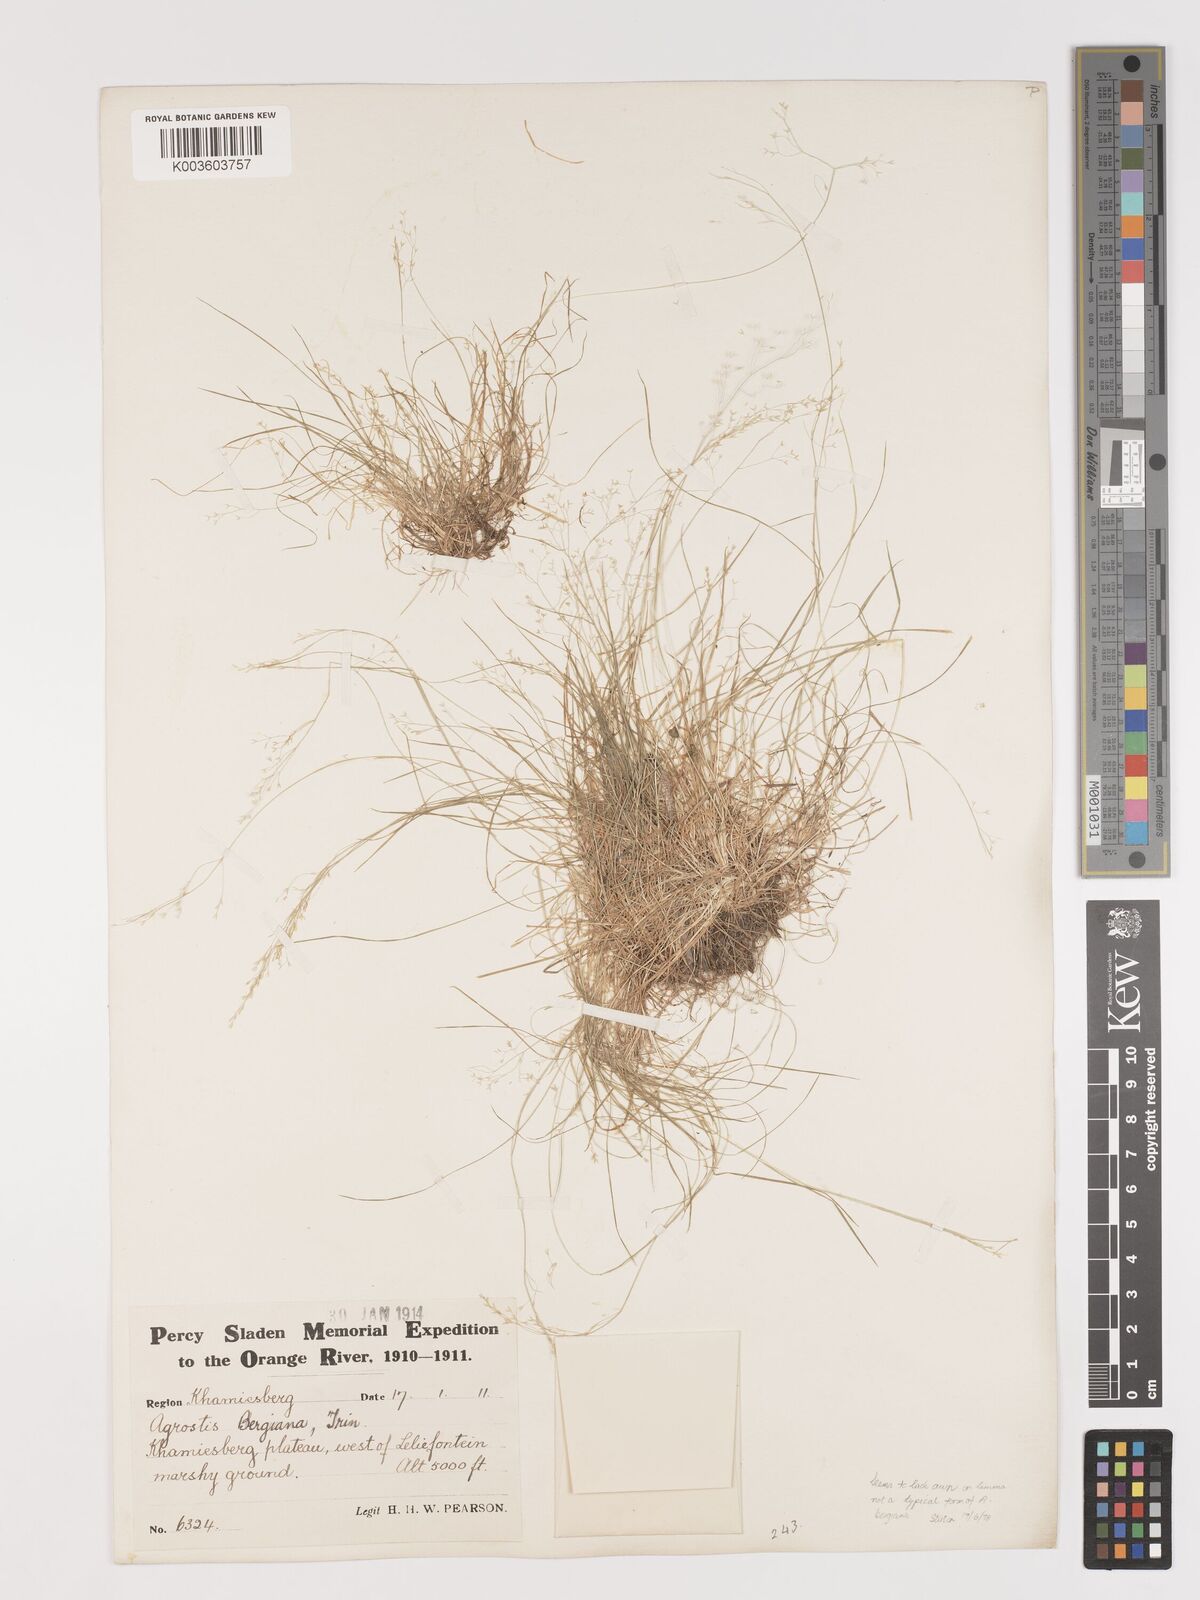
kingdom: Plantae
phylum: Tracheophyta
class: Liliopsida
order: Poales
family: Poaceae
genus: Agrostis
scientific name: Agrostis bergiana
